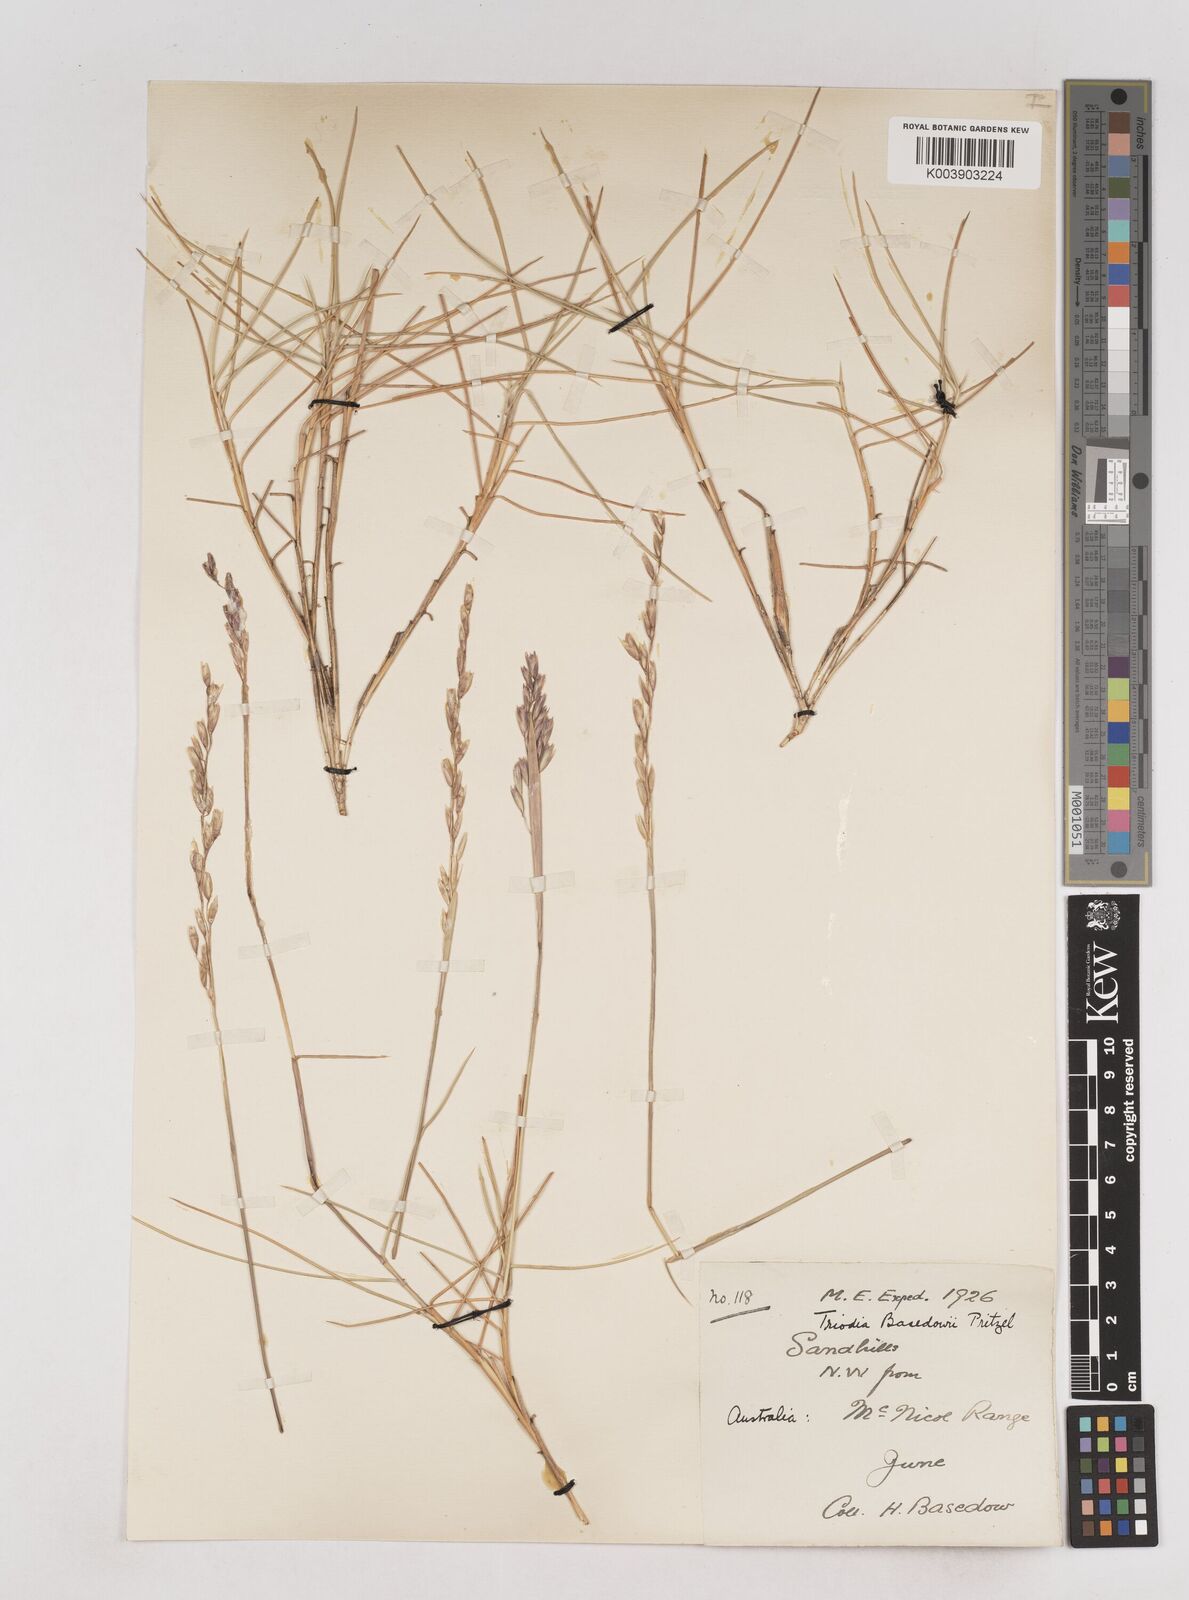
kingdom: Plantae
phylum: Tracheophyta
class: Liliopsida
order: Poales
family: Poaceae
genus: Triodia
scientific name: Triodia basedowii
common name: Hard spinifex
